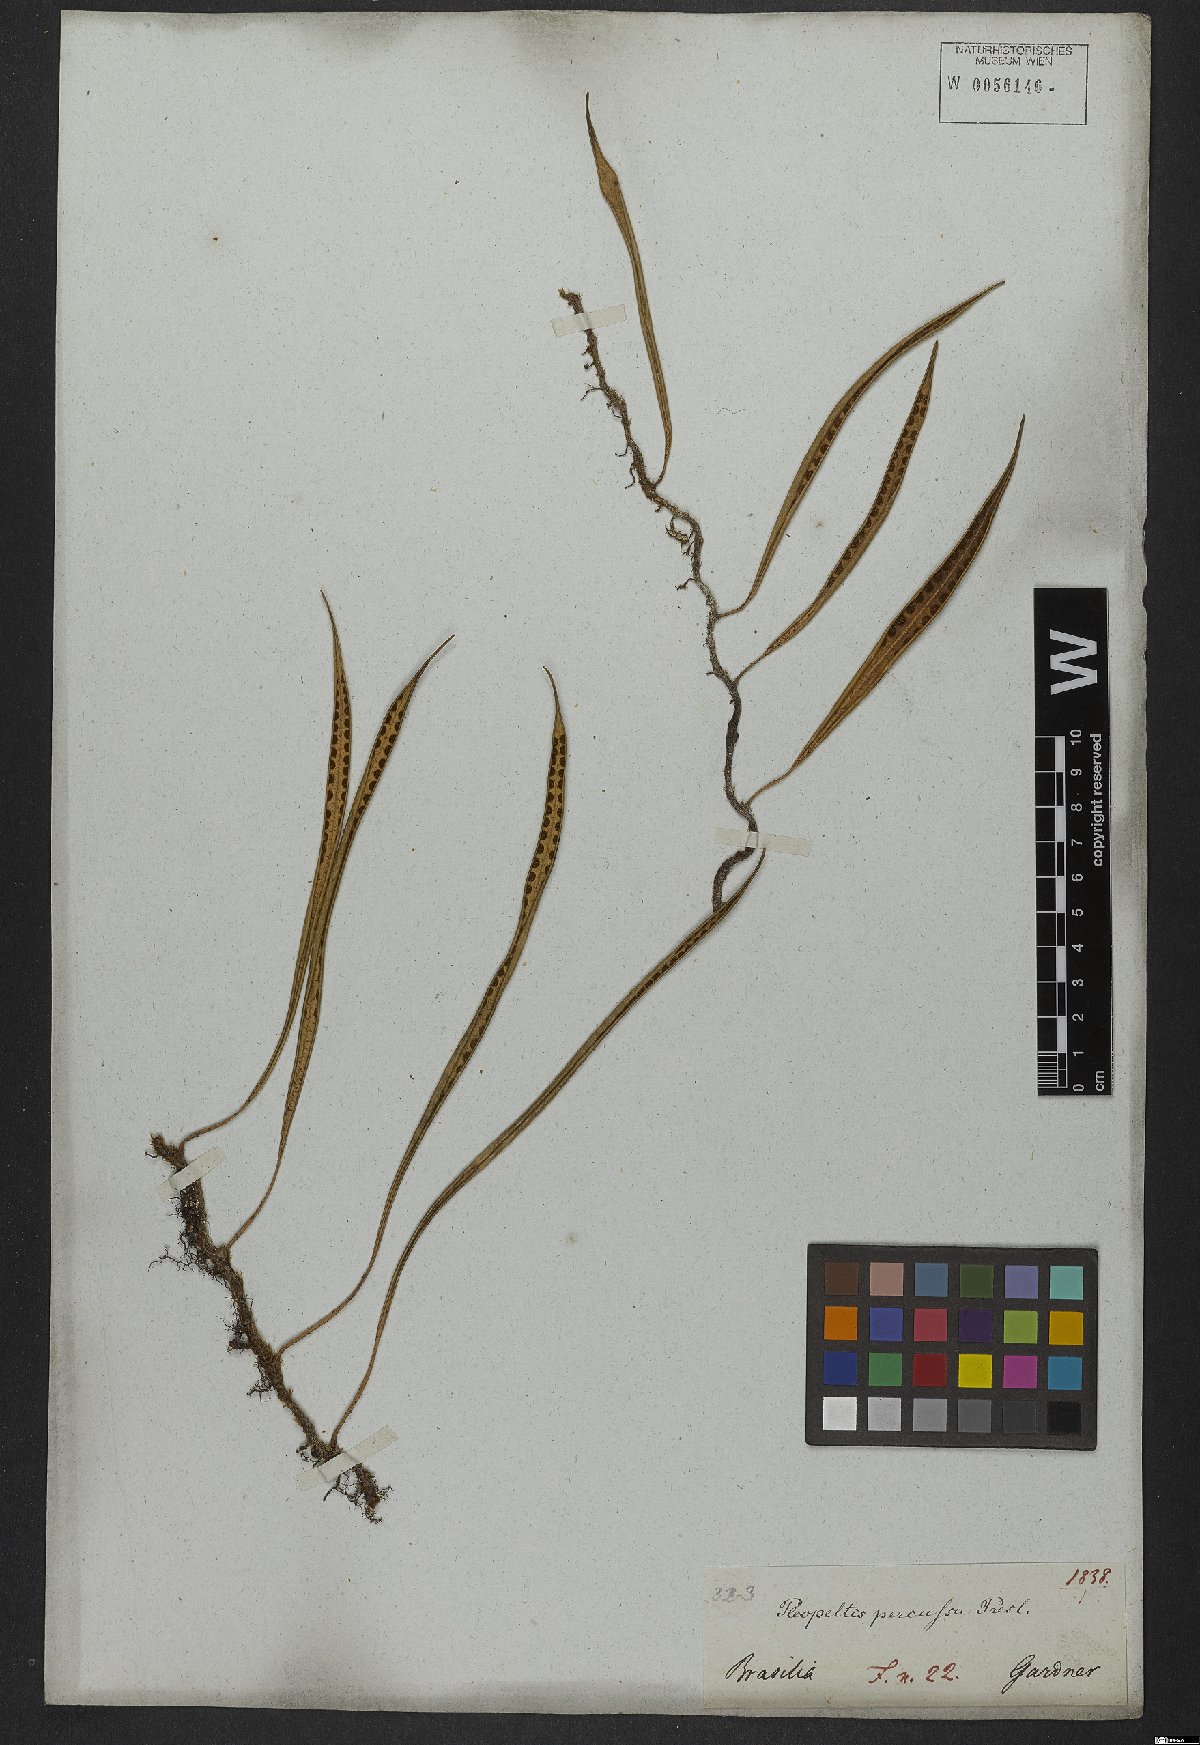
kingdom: Plantae
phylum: Tracheophyta
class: Polypodiopsida
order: Polypodiales
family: Polypodiaceae
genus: Microgramma
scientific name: Microgramma percussa
